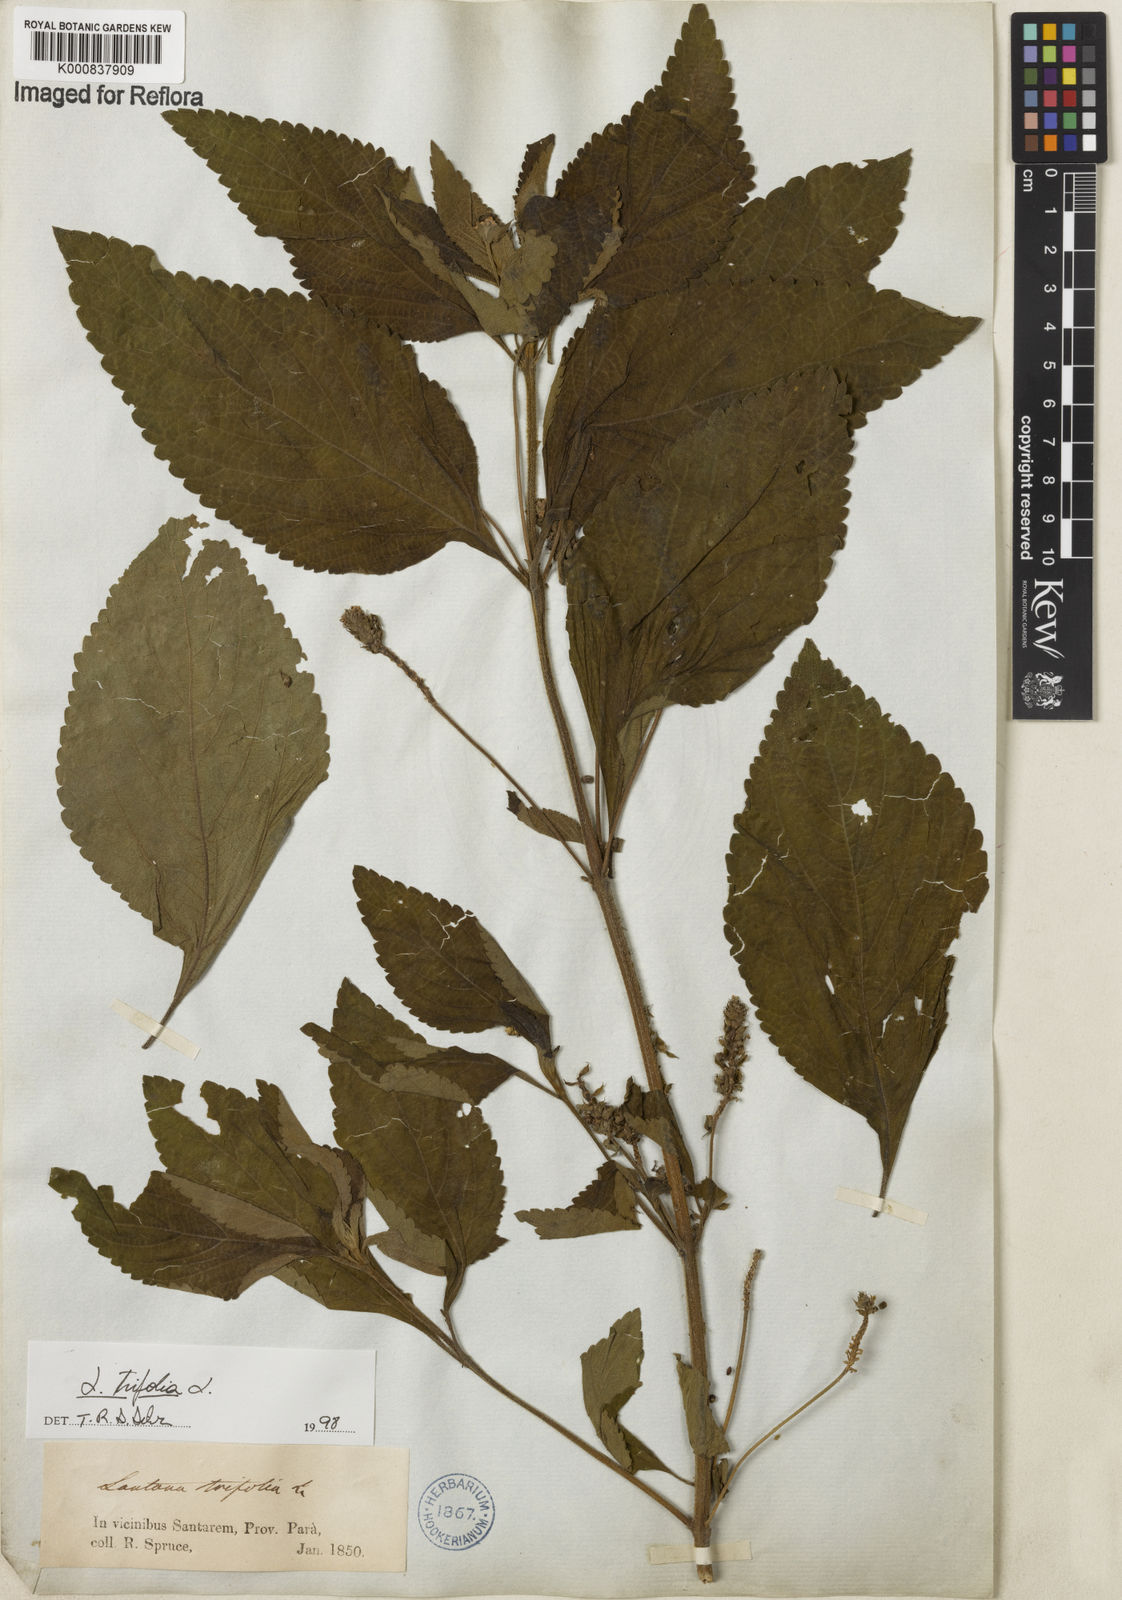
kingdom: Plantae
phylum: Tracheophyta
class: Magnoliopsida
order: Lamiales
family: Verbenaceae
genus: Lantana
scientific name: Lantana trifolia
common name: Sweet-sage
